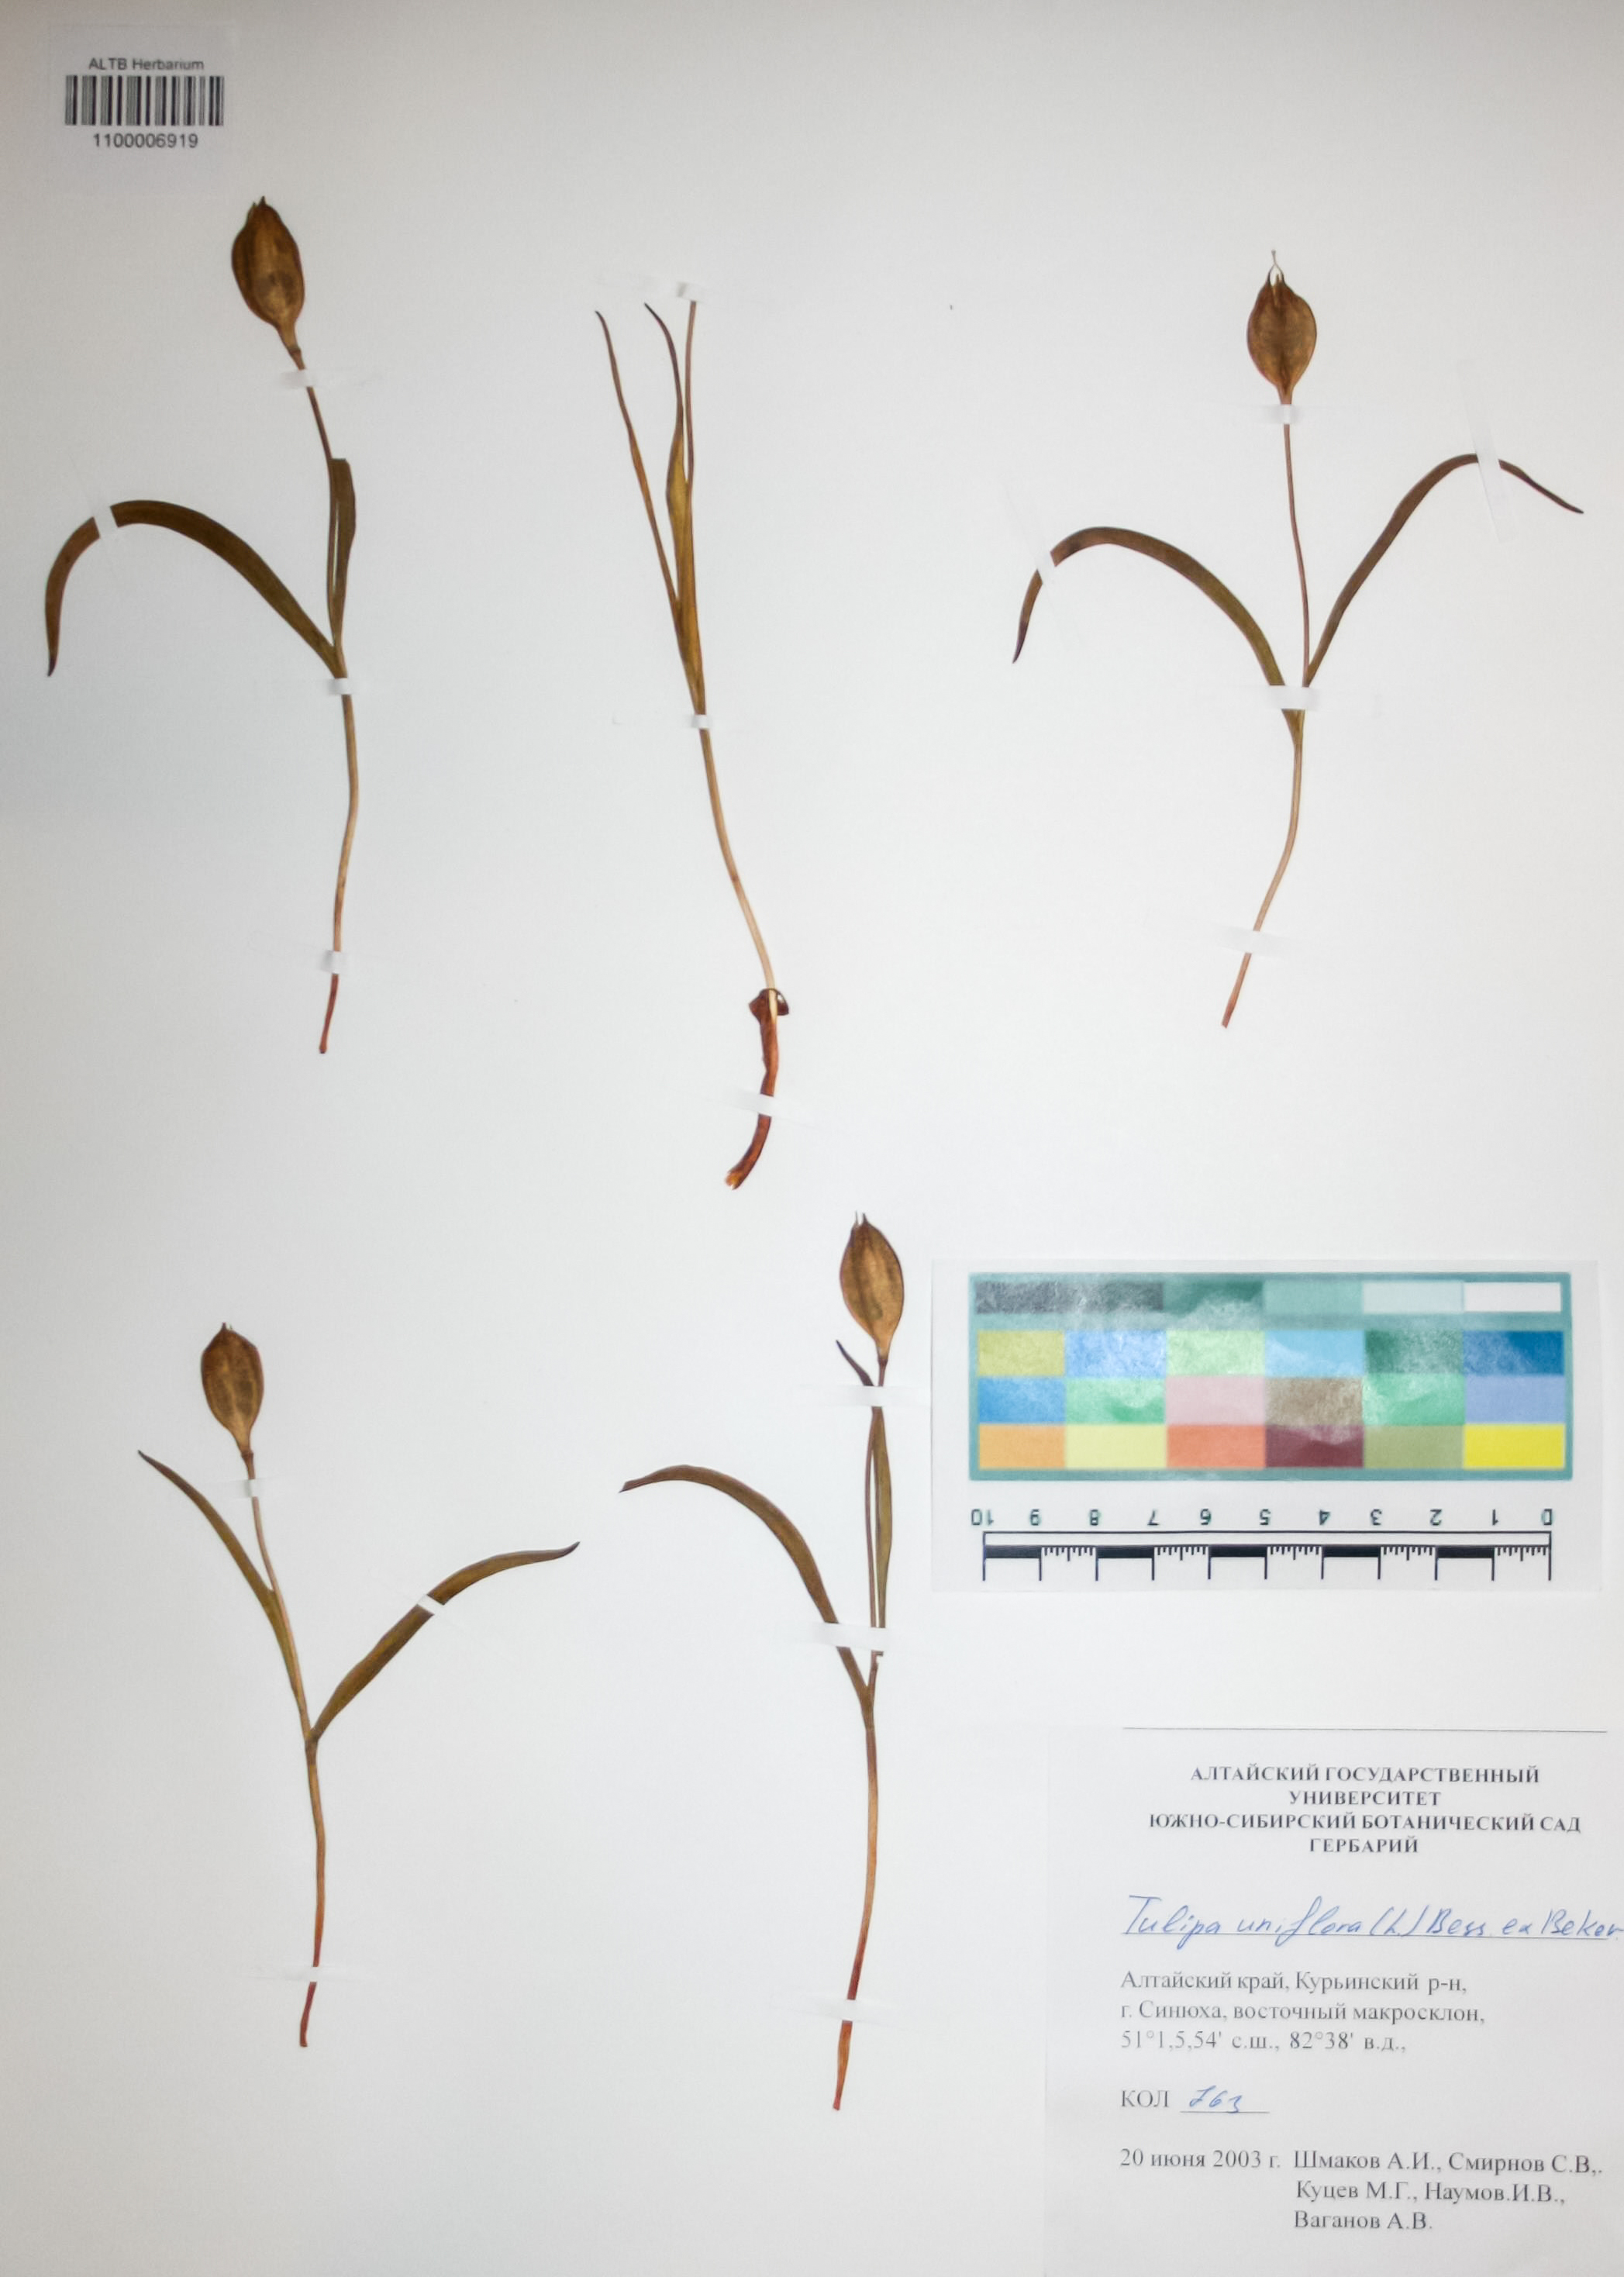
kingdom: Plantae
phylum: Tracheophyta
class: Liliopsida
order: Liliales
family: Liliaceae
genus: Tulipa
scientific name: Tulipa uniflora
